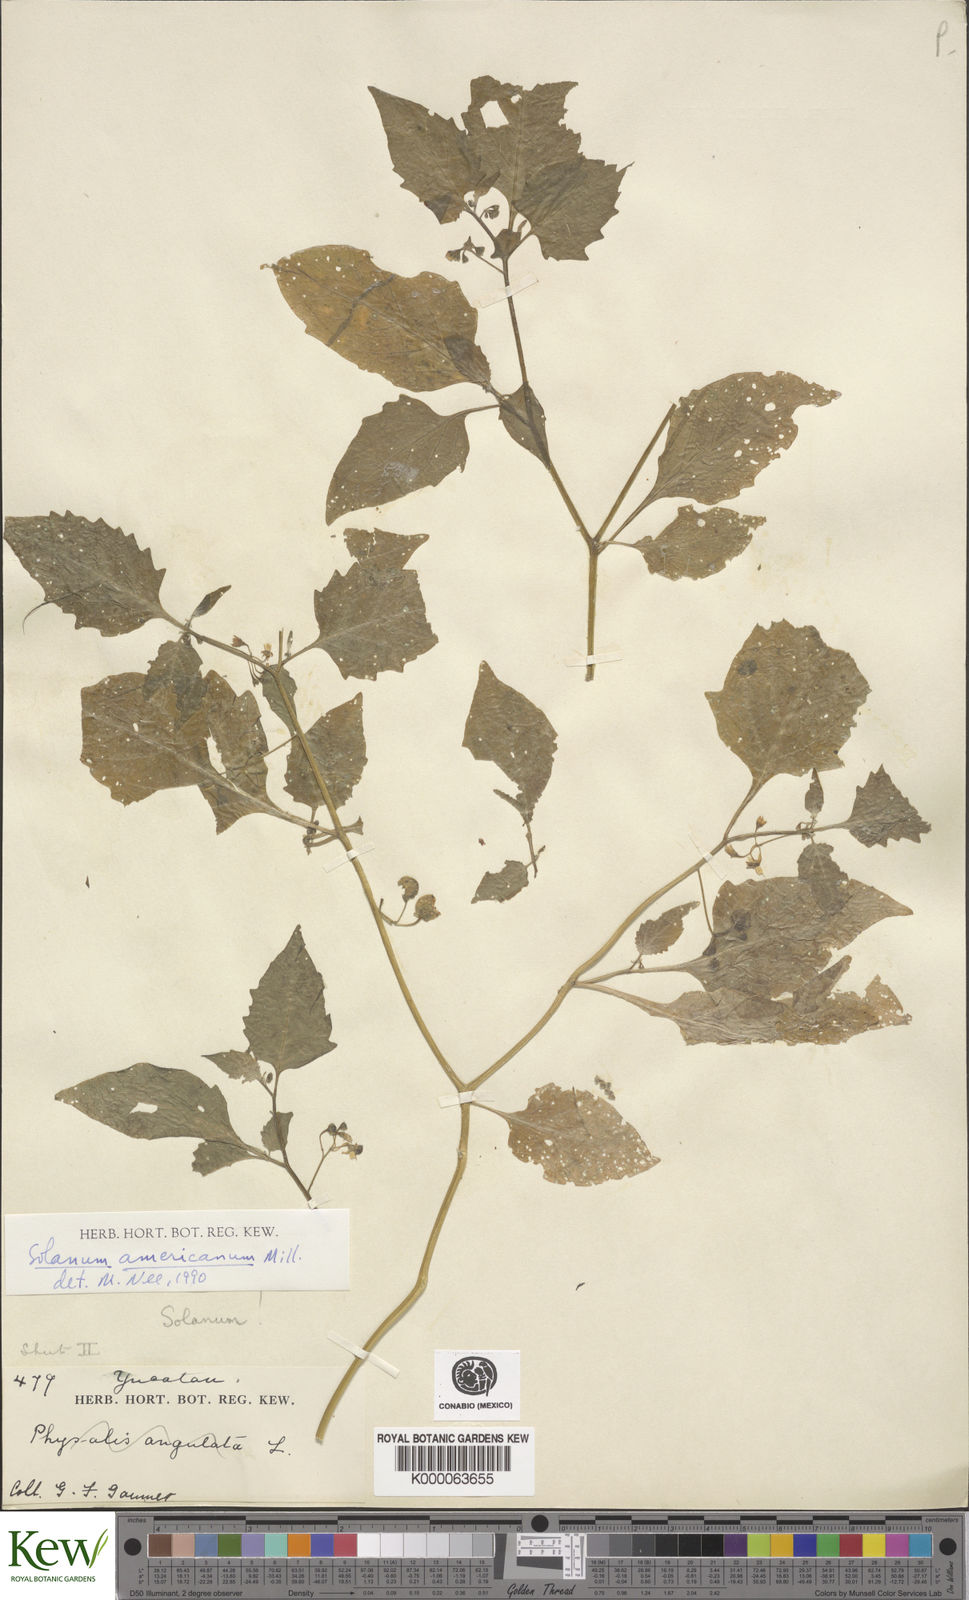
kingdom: Plantae
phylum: Tracheophyta
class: Magnoliopsida
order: Solanales
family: Solanaceae
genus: Solanum
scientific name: Solanum americanum
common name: American black nightshade
